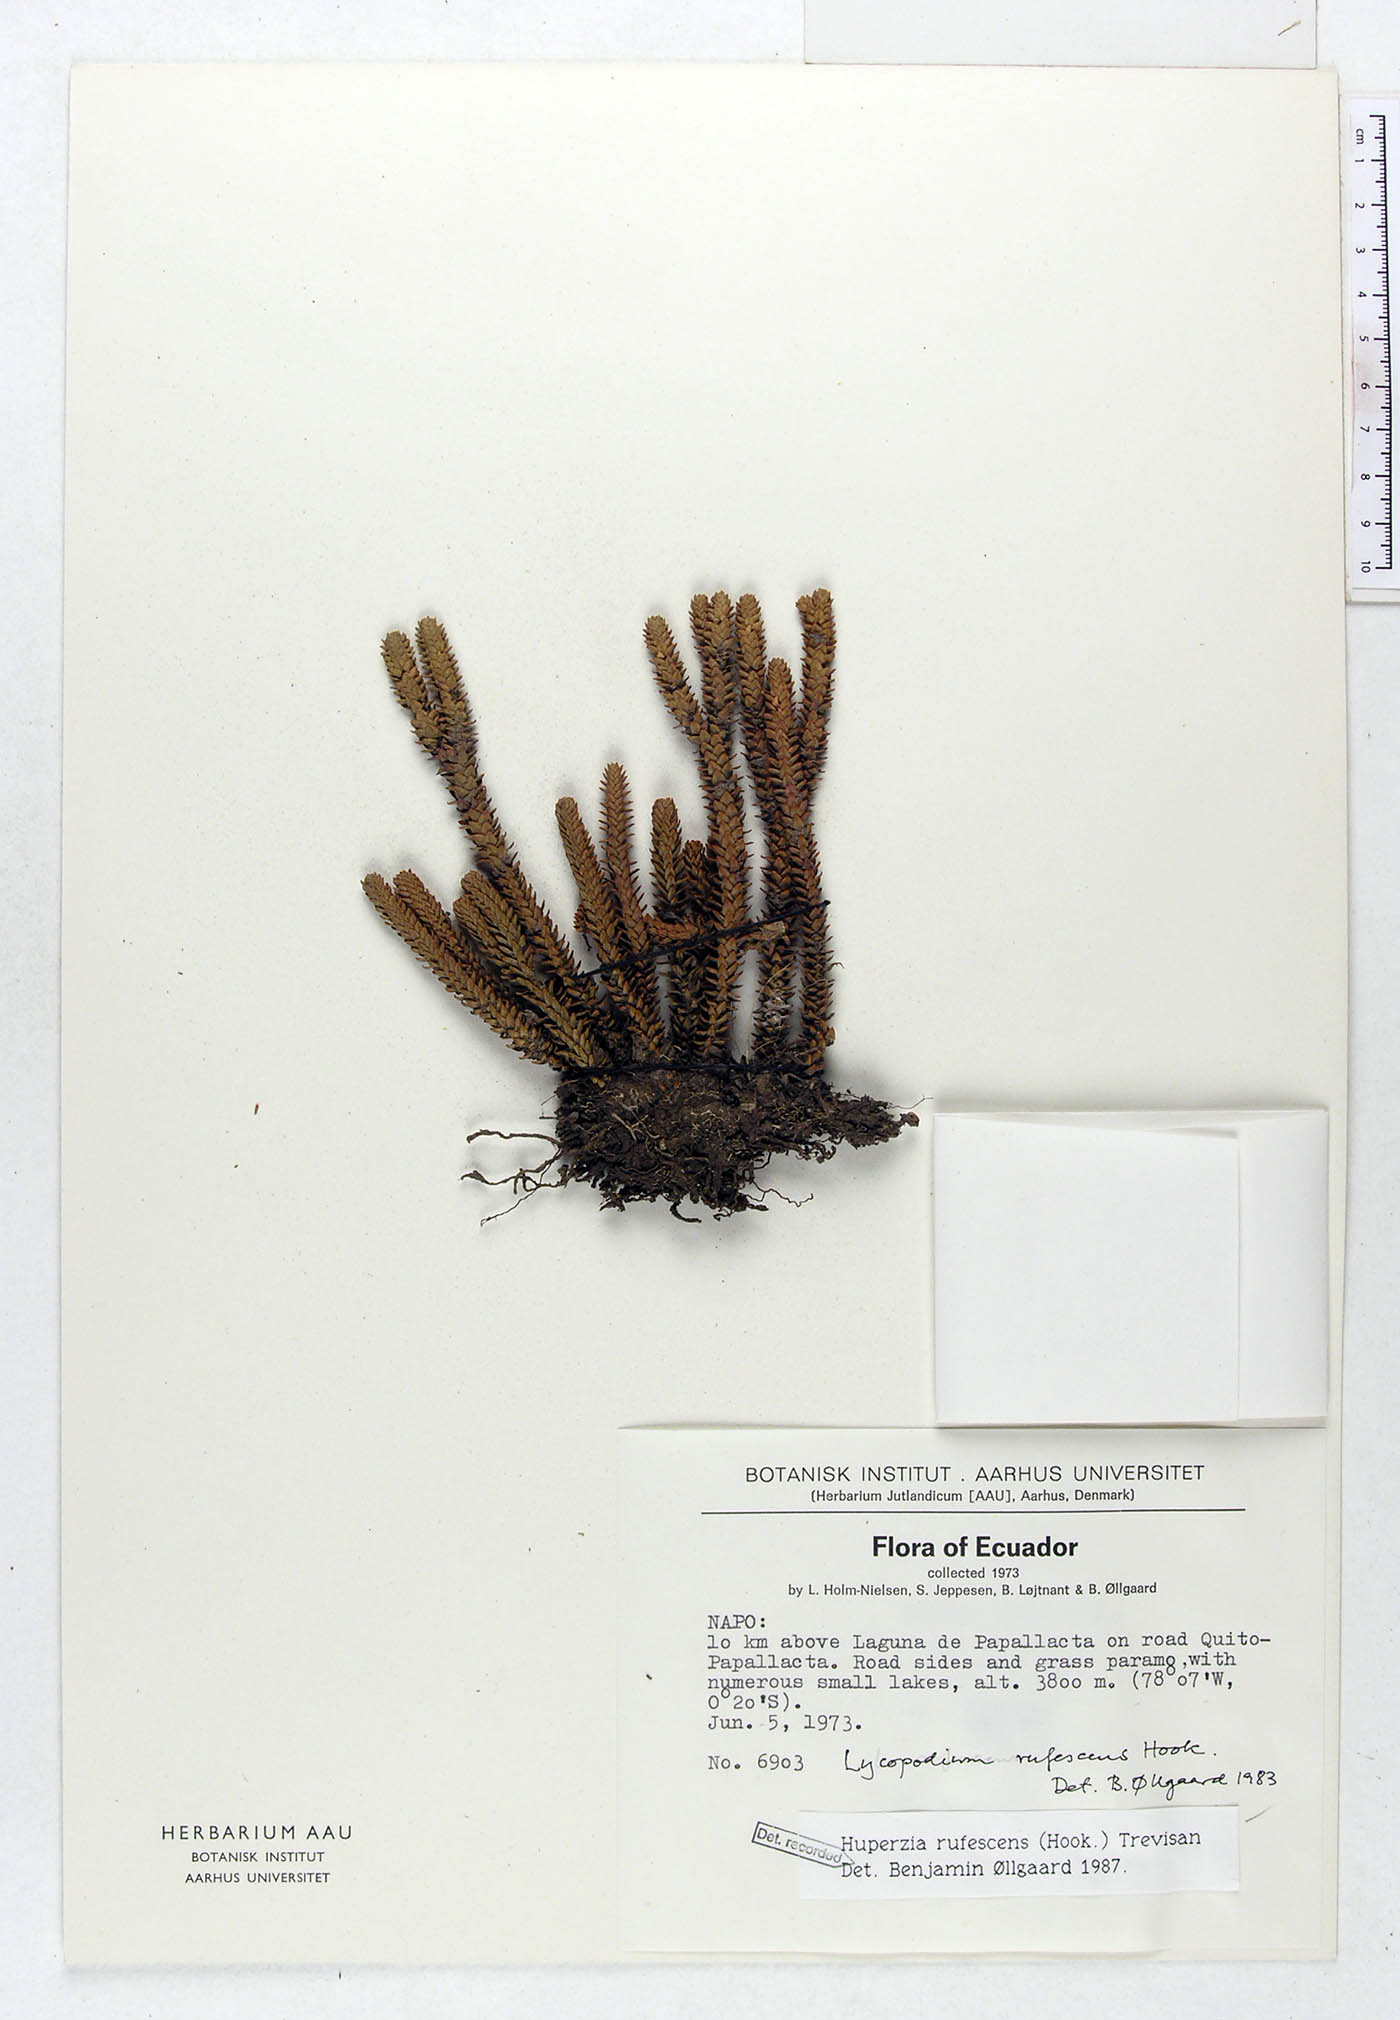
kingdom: Plantae
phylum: Tracheophyta
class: Lycopodiopsida
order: Lycopodiales
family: Lycopodiaceae
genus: Phlegmariurus
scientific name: Phlegmariurus rufescens
